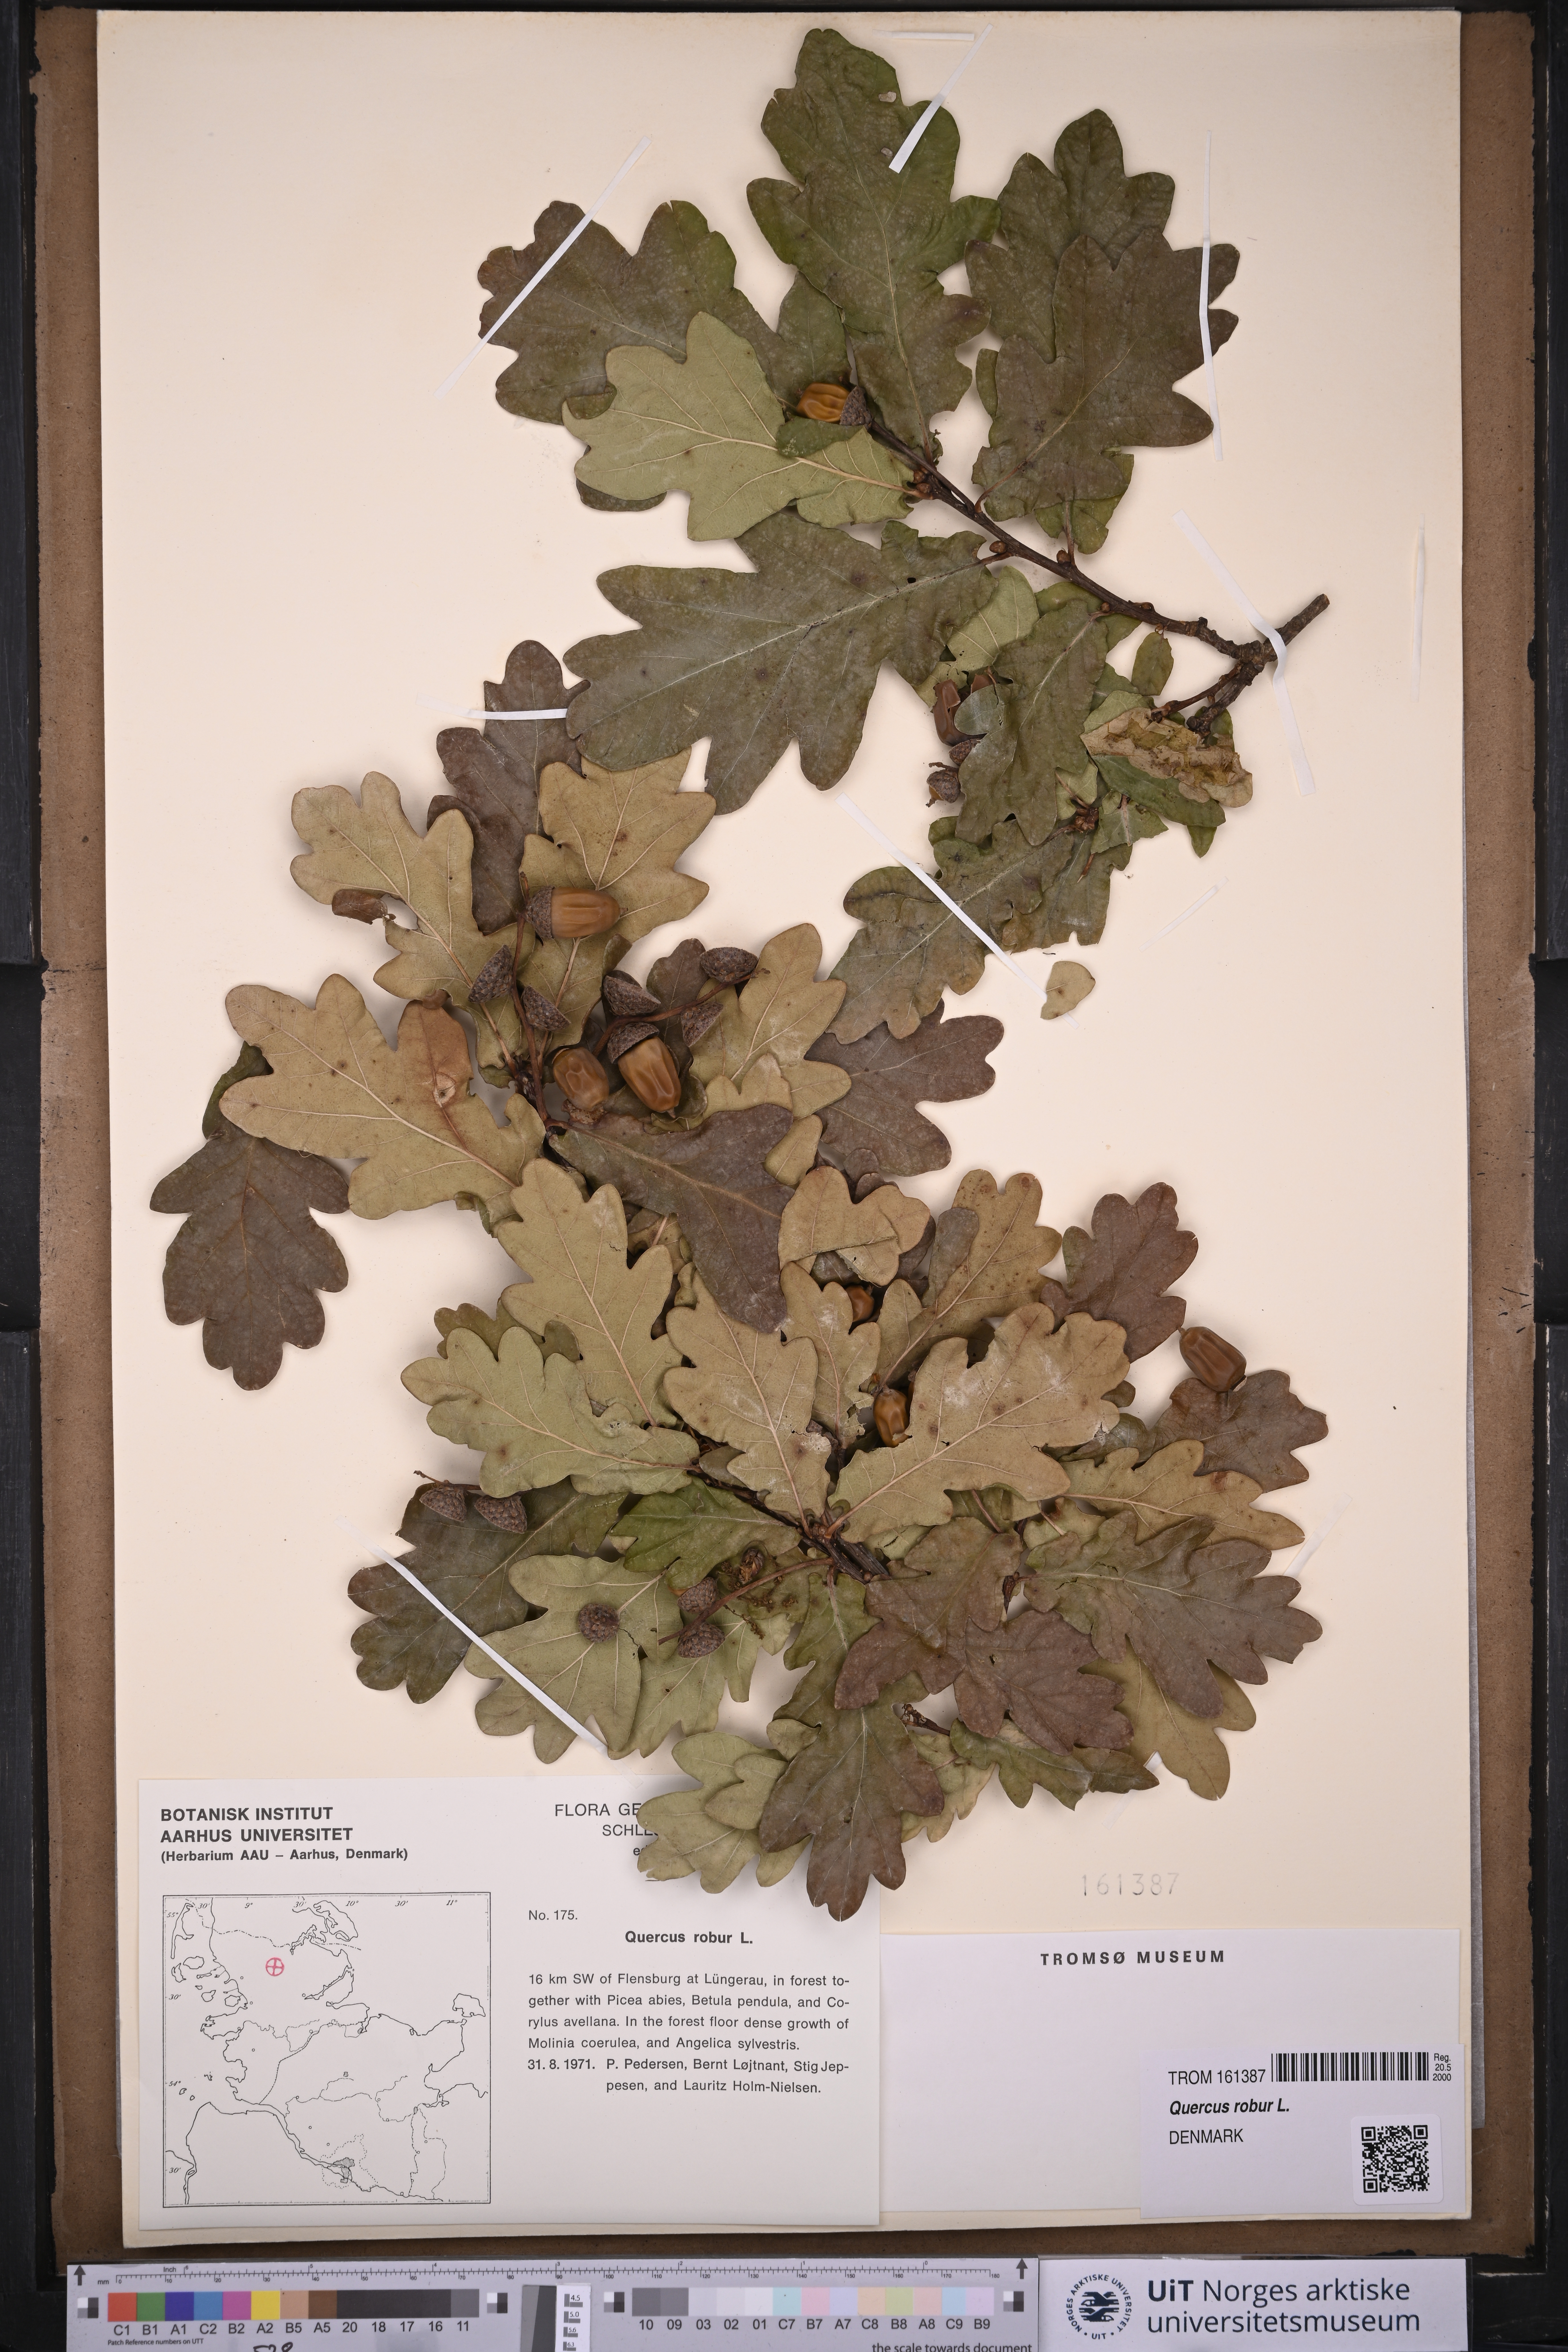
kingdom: Plantae
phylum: Tracheophyta
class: Magnoliopsida
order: Fagales
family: Fagaceae
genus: Quercus
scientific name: Quercus robur
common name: Pedunculate oak
